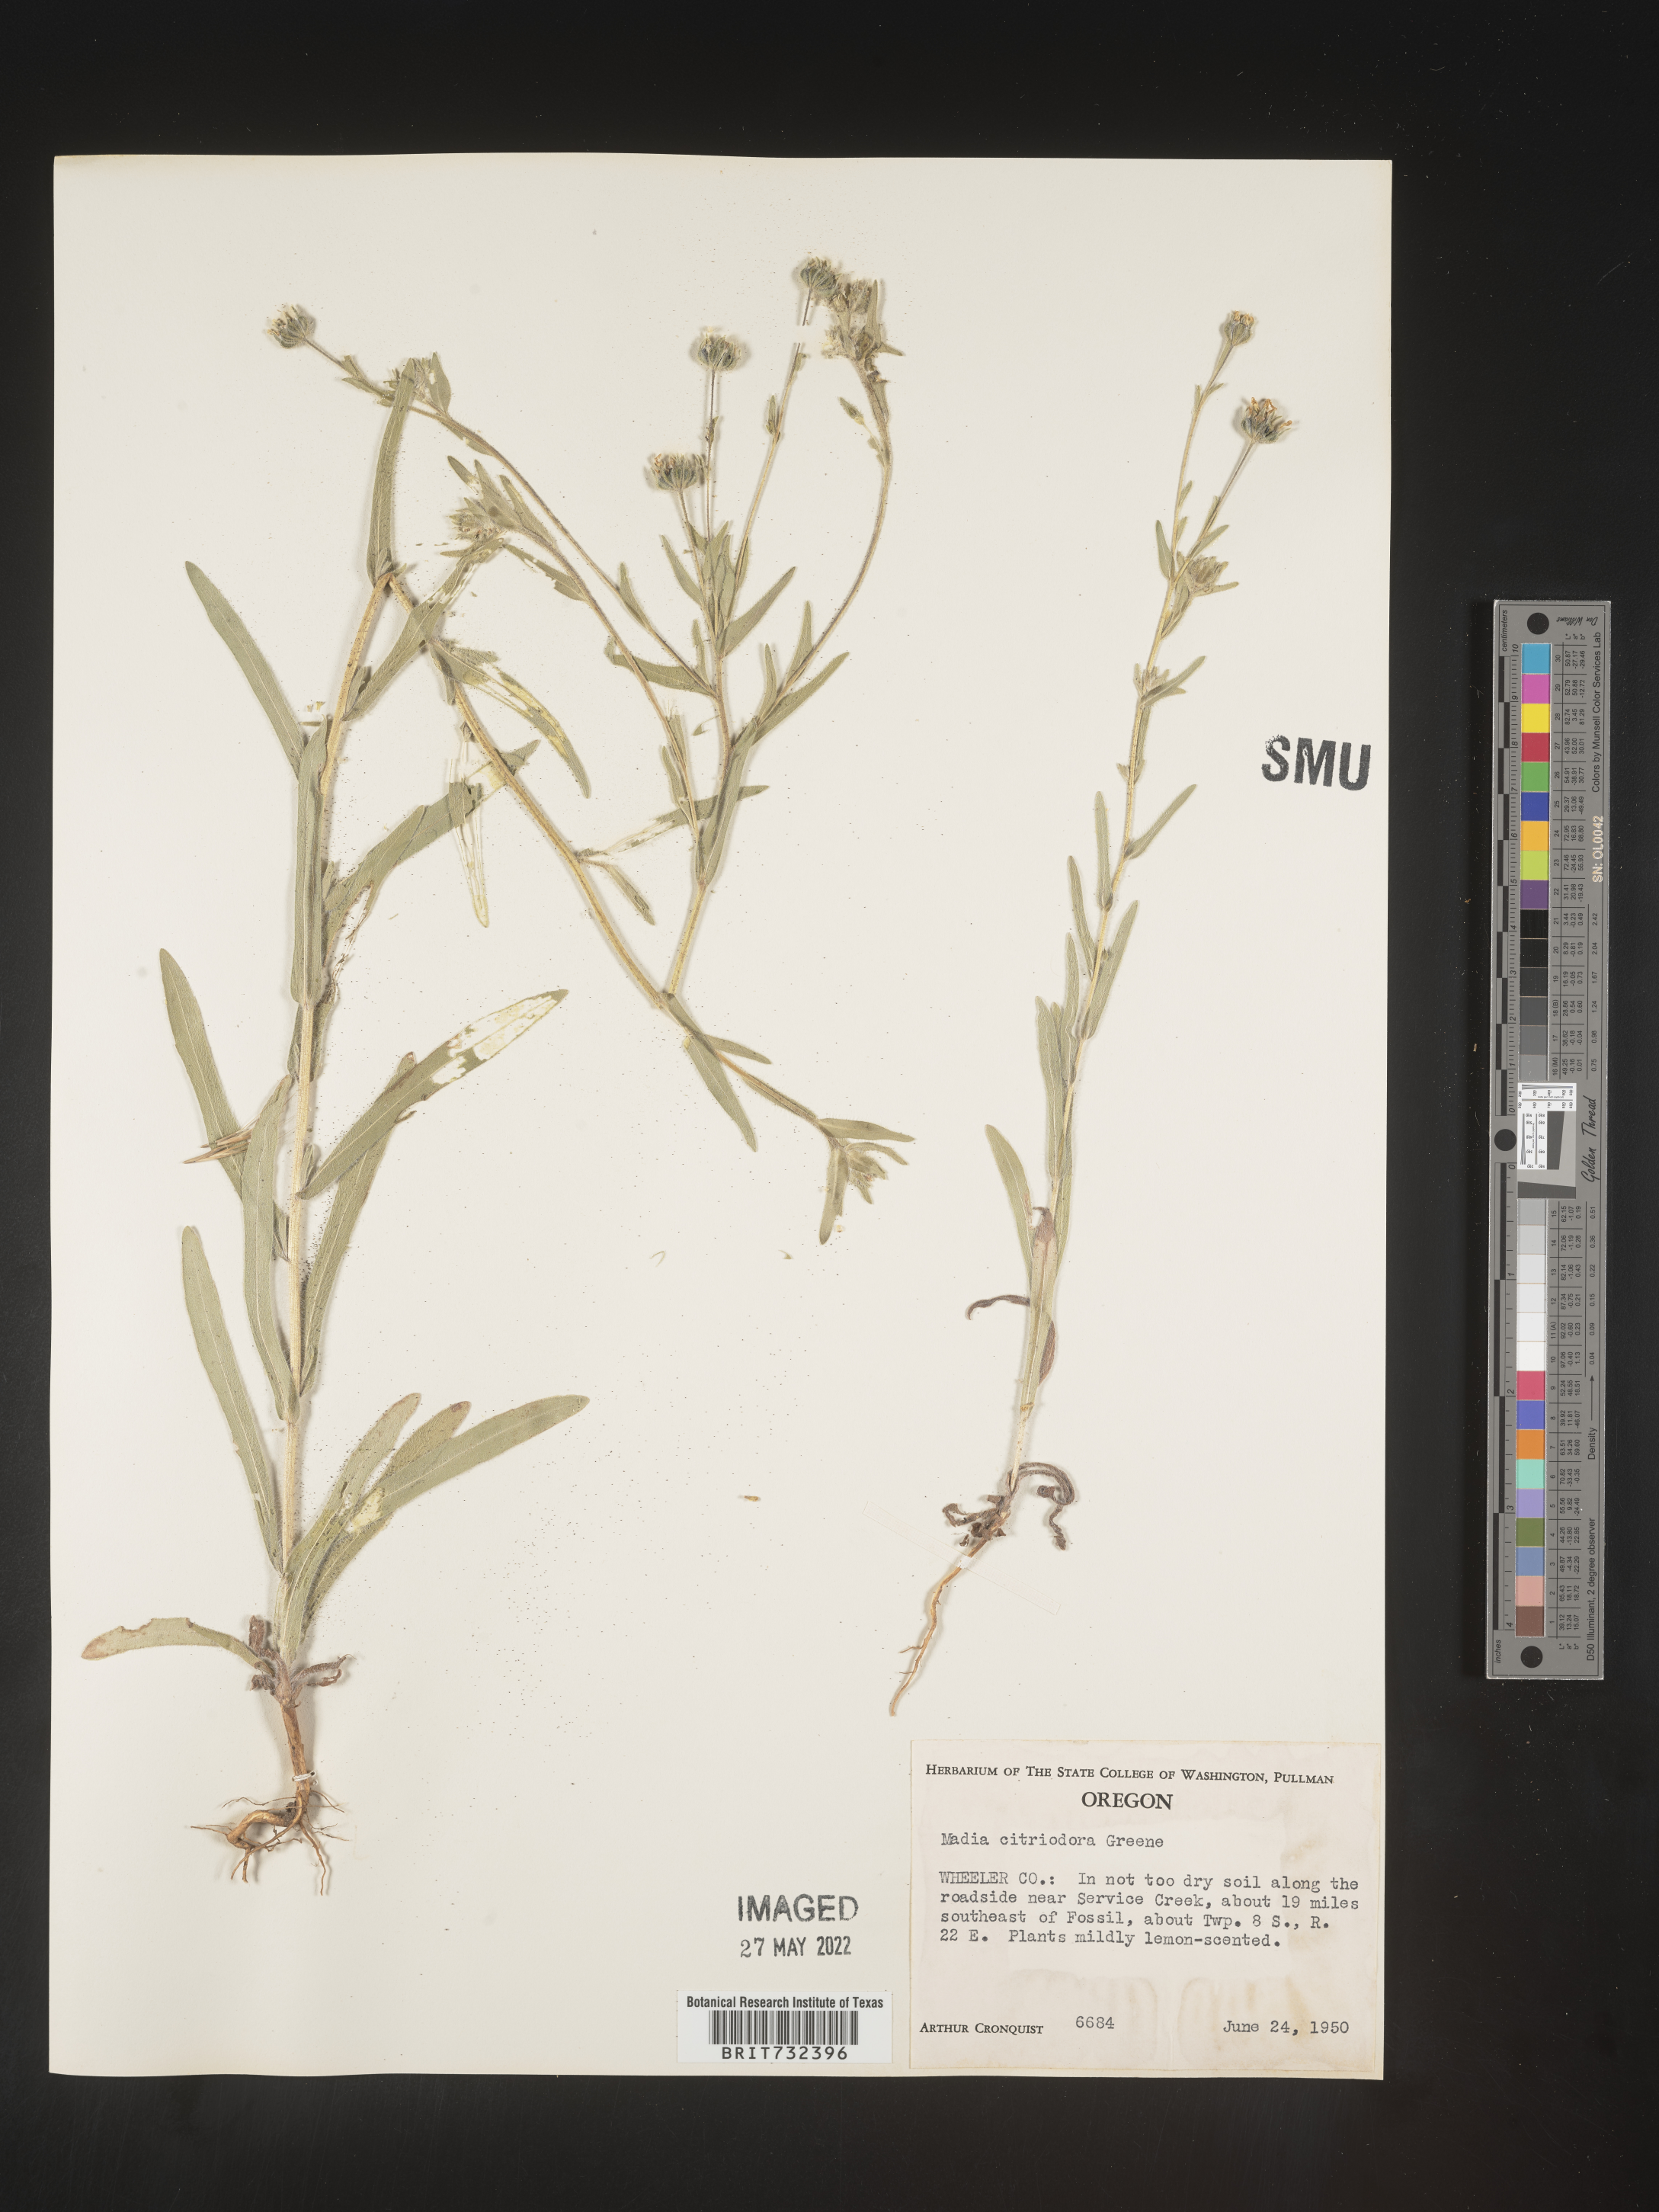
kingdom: Plantae
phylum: Tracheophyta
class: Magnoliopsida
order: Asterales
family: Asteraceae
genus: Madia
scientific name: Madia citriodora
